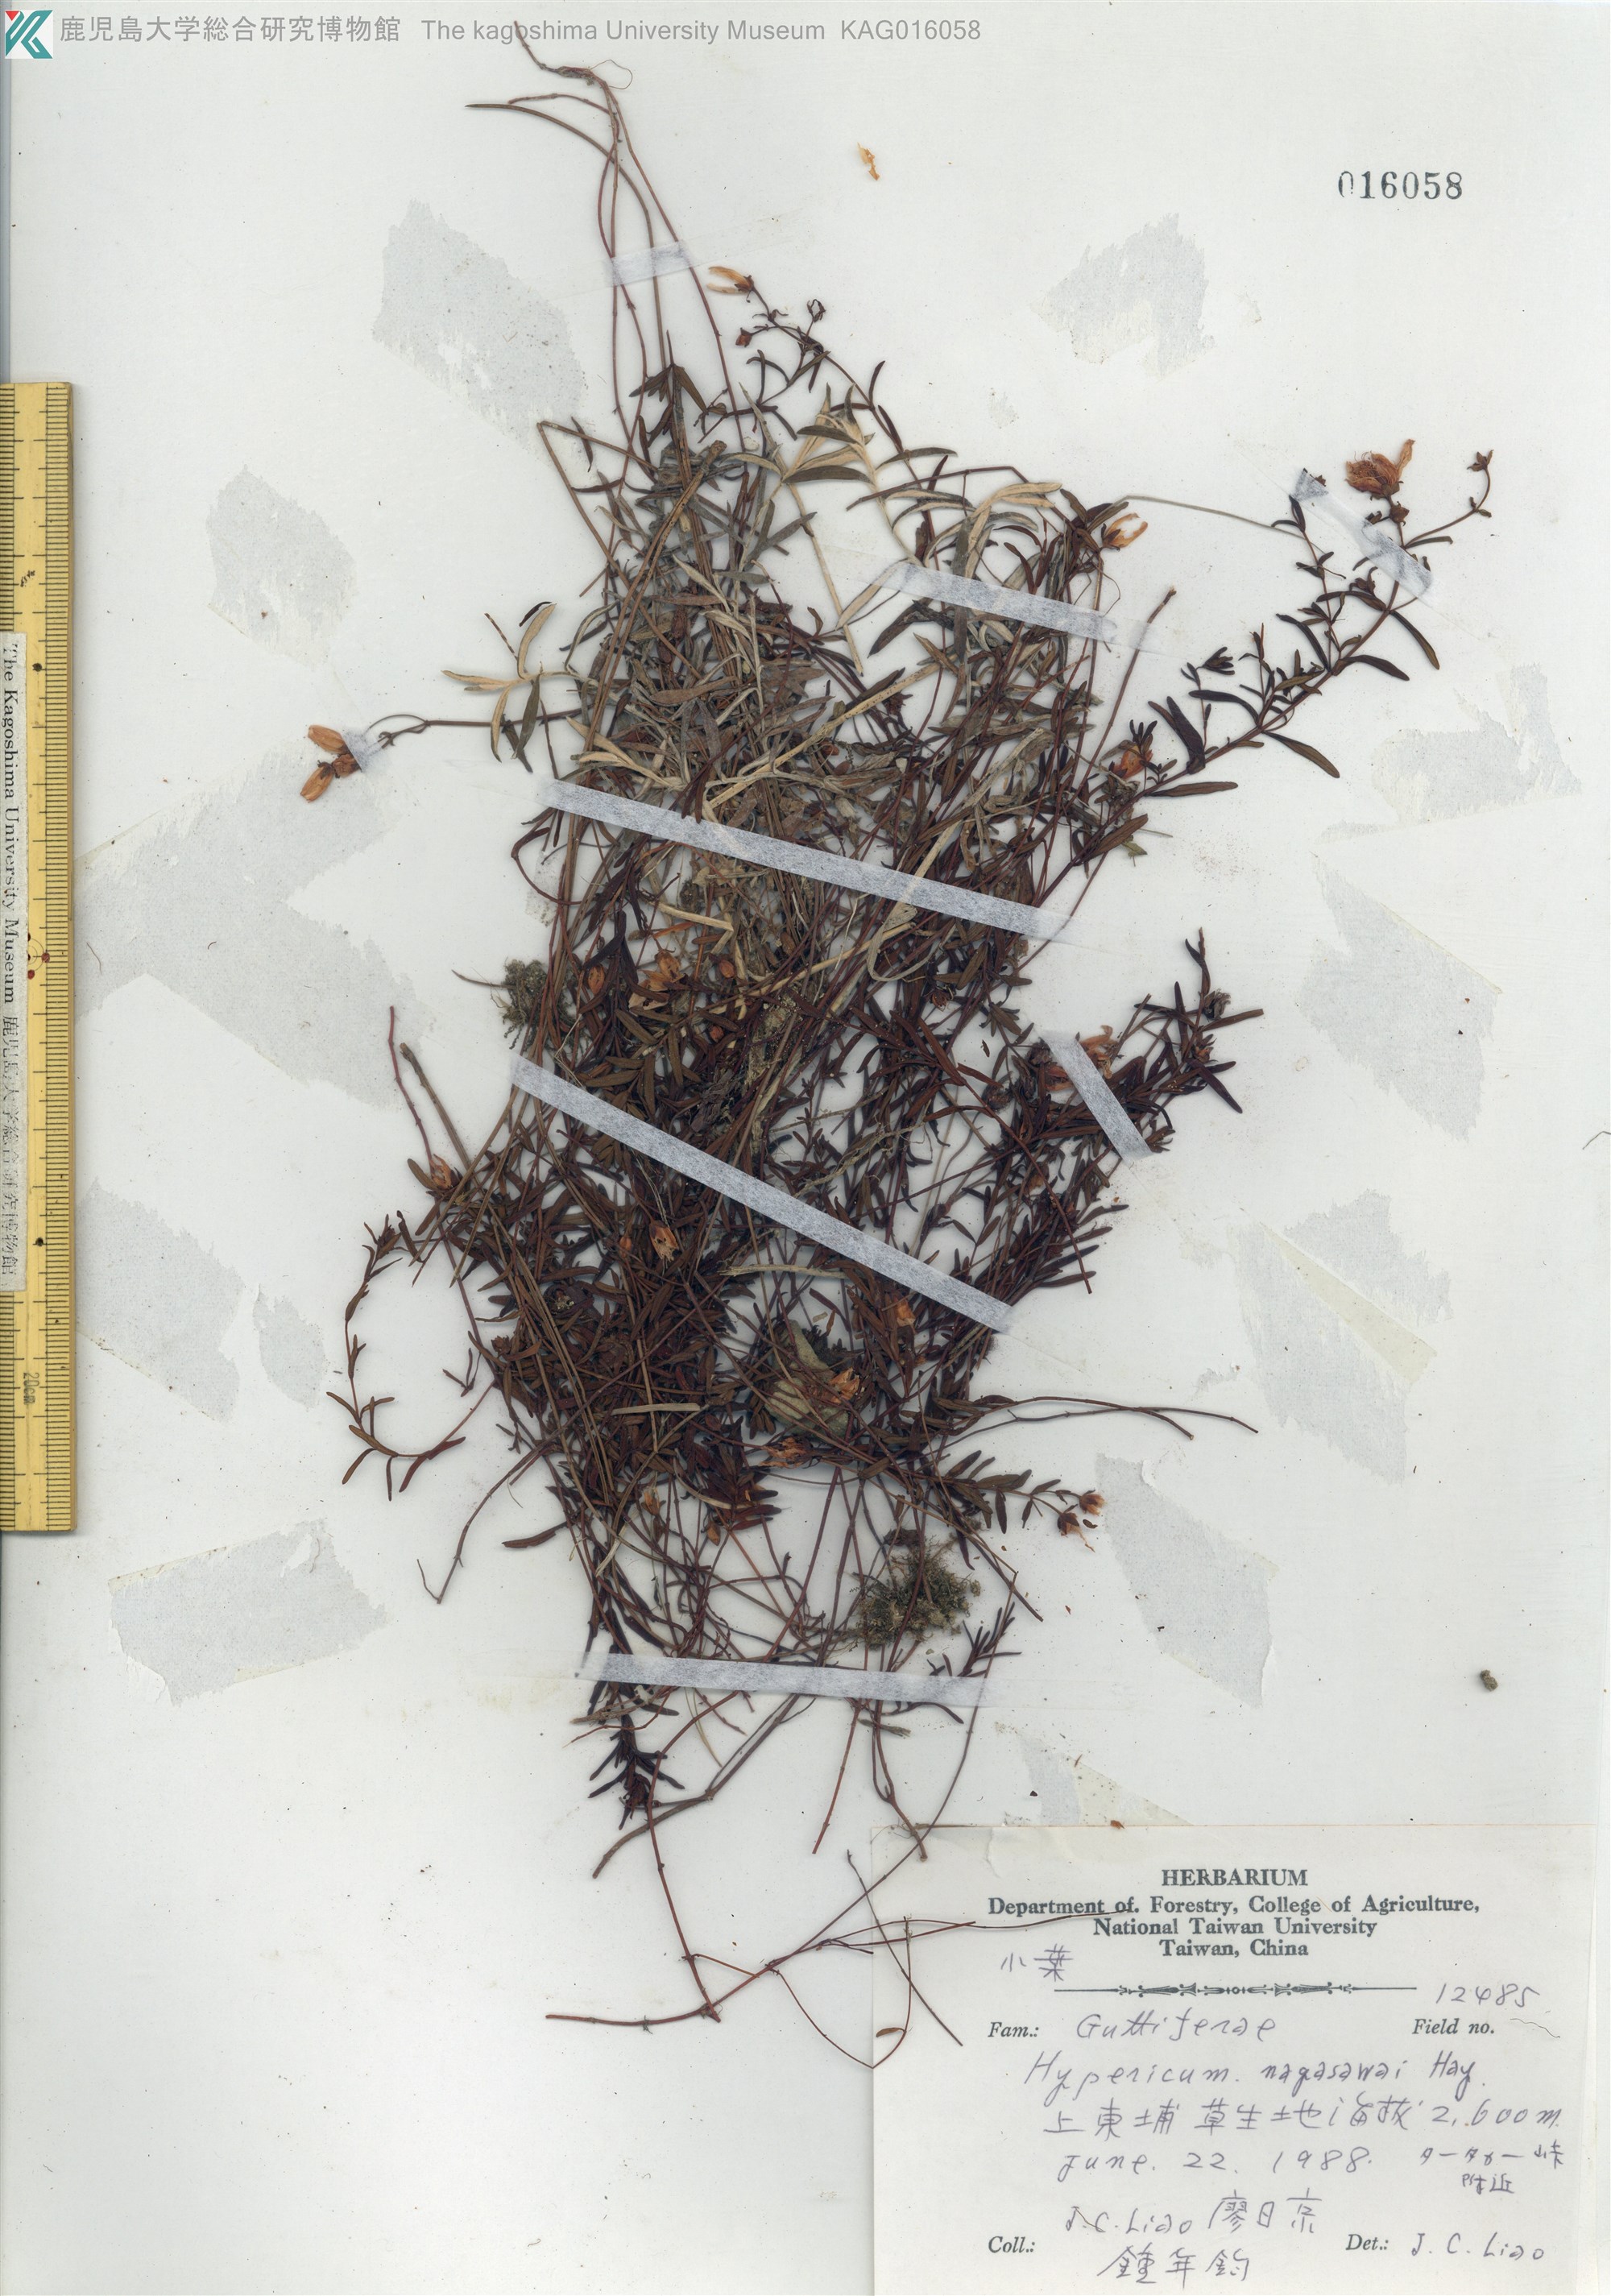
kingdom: Plantae
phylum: Tracheophyta
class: Magnoliopsida
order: Malpighiales
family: Hypericaceae
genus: Hypericum
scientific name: Hypericum nagasawae
